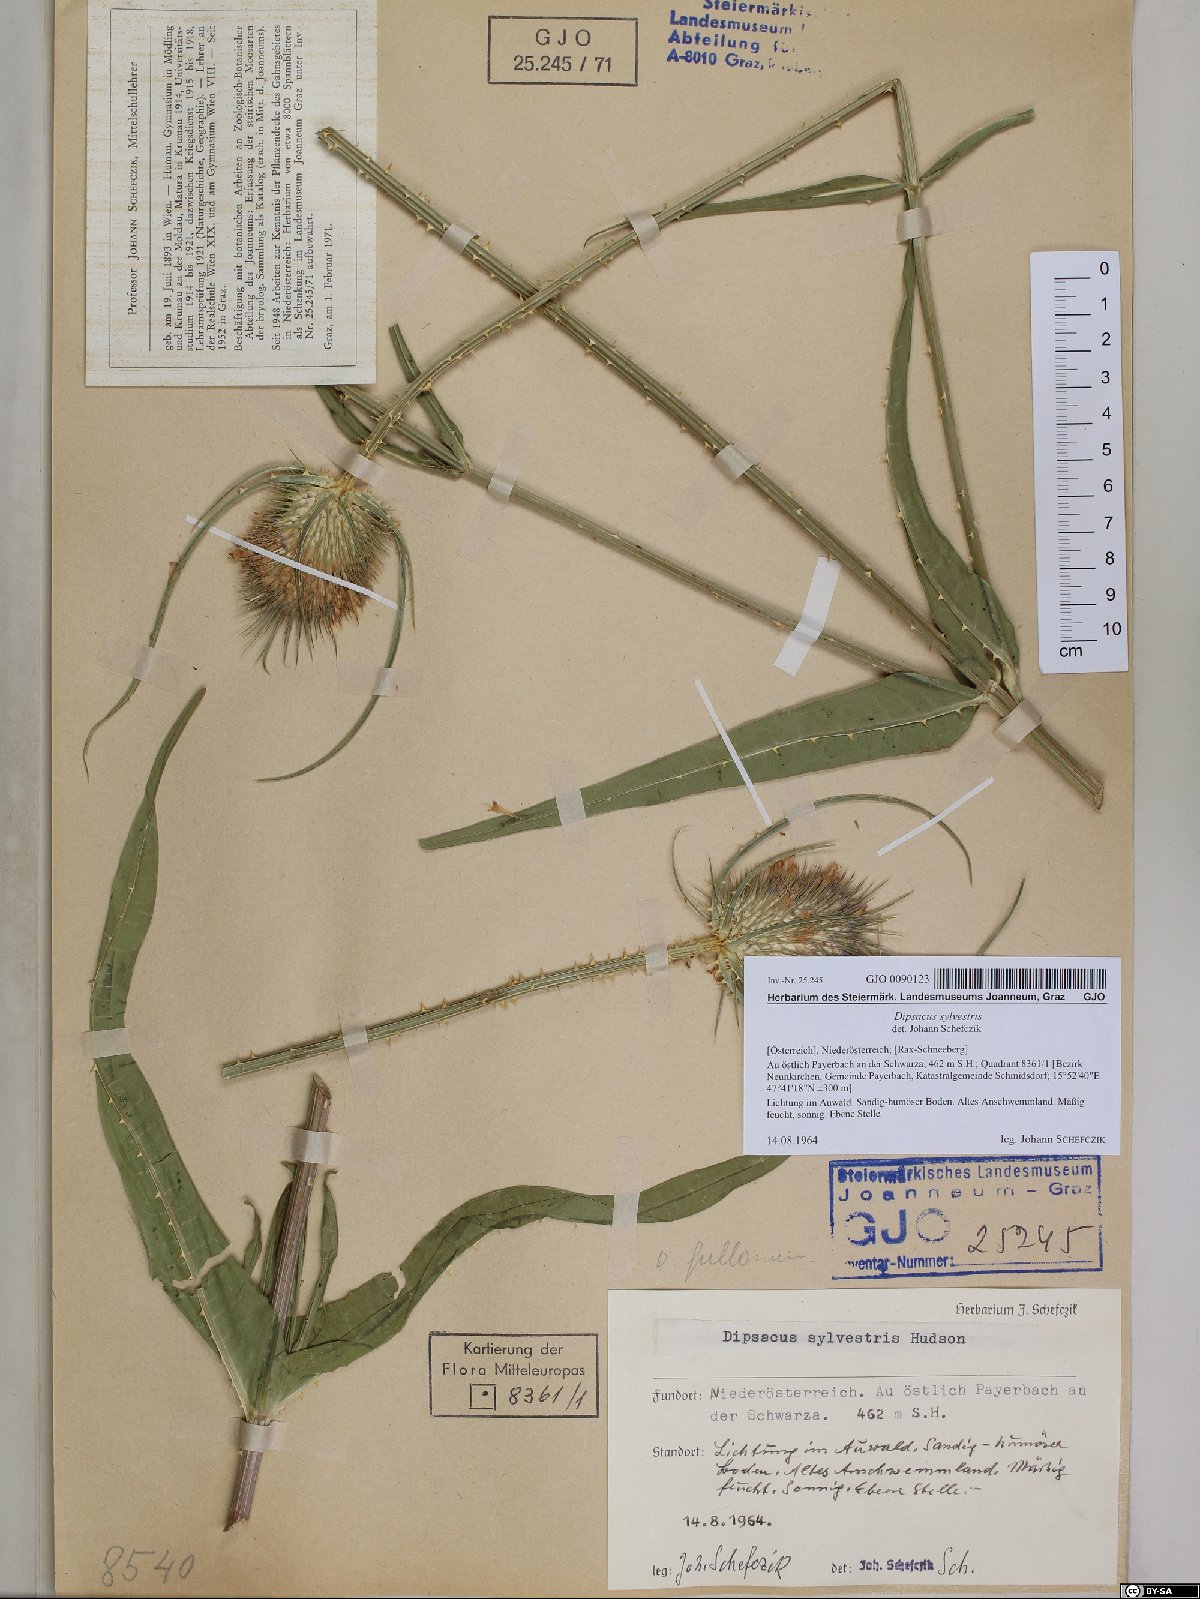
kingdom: Plantae
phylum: Tracheophyta
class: Magnoliopsida
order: Dipsacales
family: Caprifoliaceae
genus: Dipsacus
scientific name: Dipsacus fullonum
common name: Teasel
